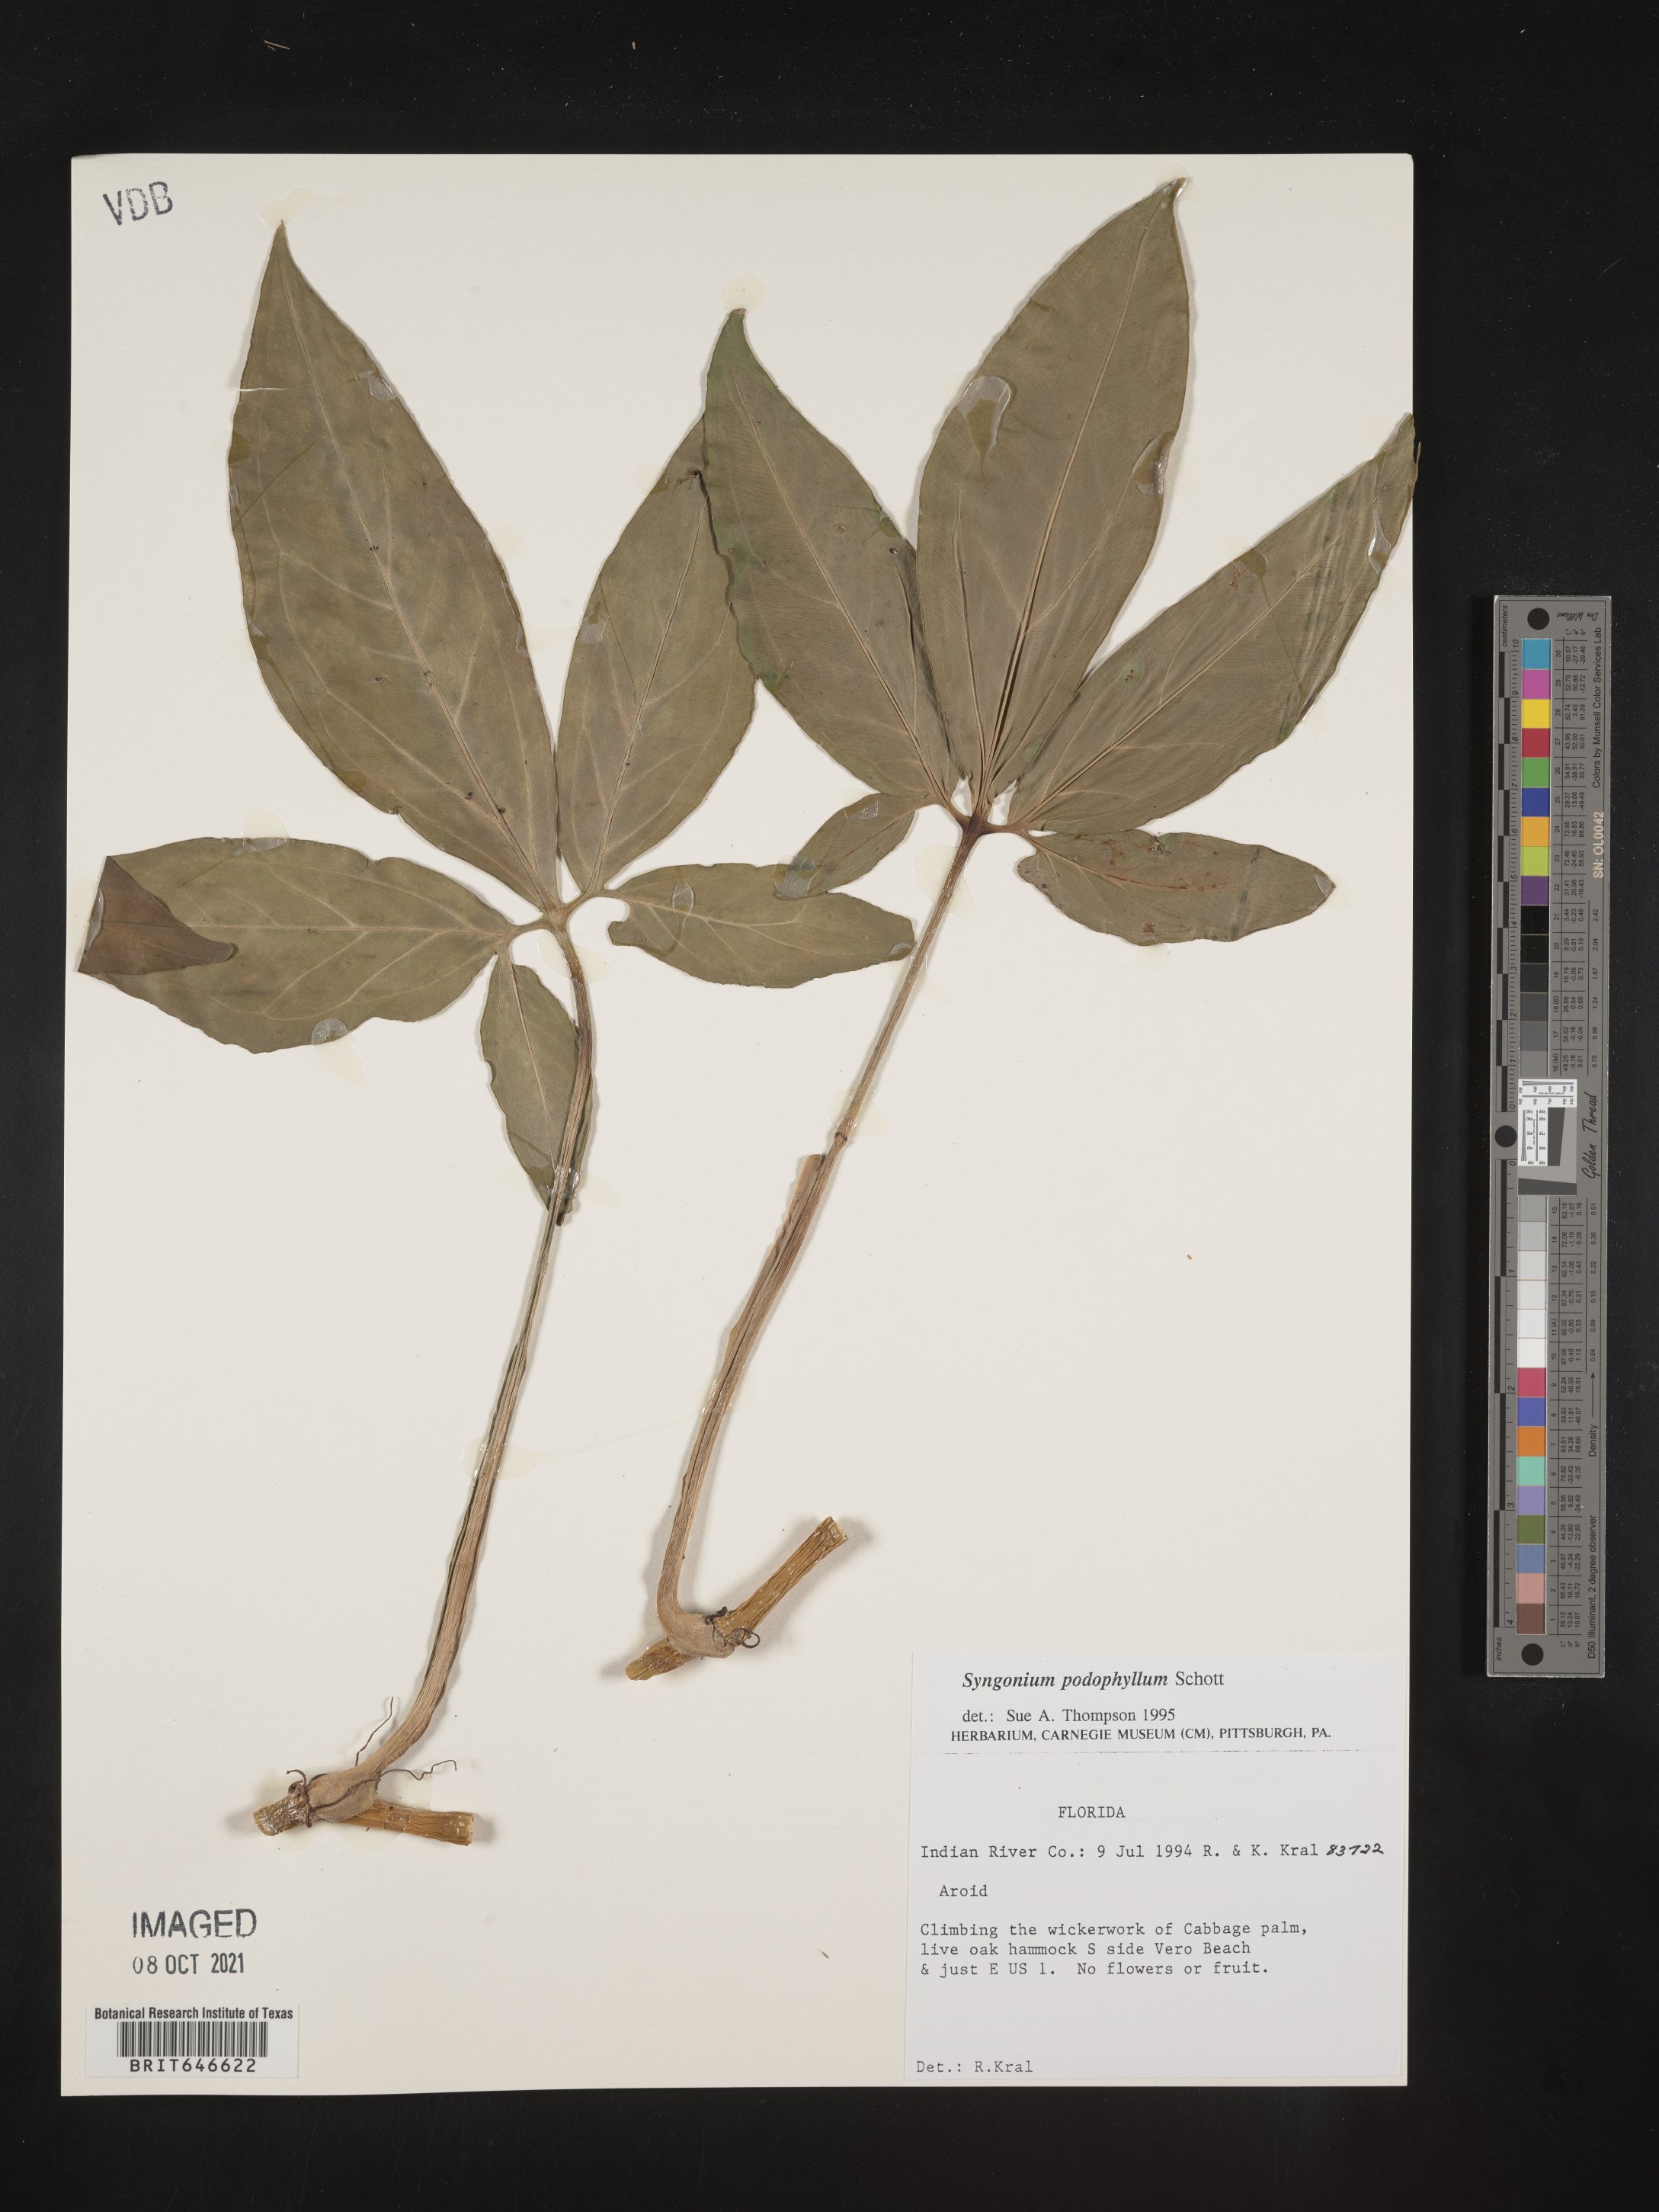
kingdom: Plantae
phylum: Tracheophyta
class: Liliopsida
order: Alismatales
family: Araceae
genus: Syngonium
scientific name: Syngonium podophyllum
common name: American evergreen
